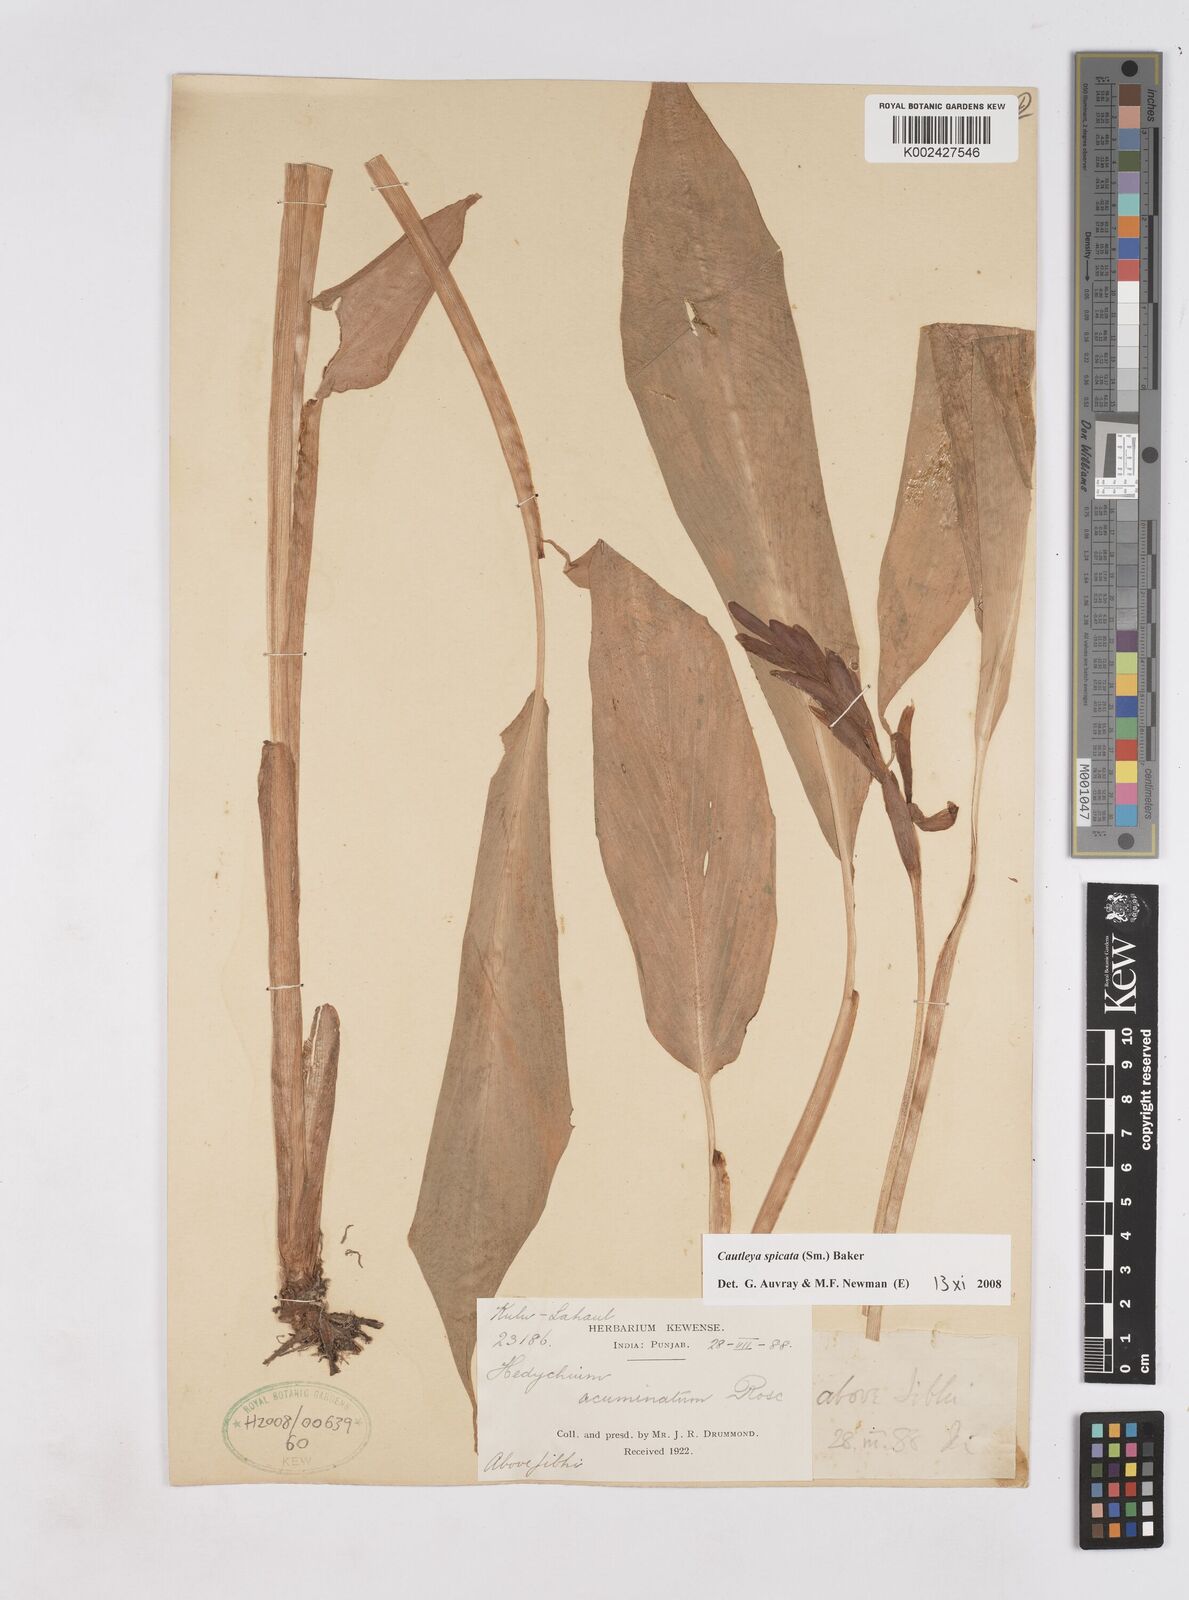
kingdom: Plantae
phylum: Tracheophyta
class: Liliopsida
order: Zingiberales
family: Zingiberaceae
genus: Cautleya
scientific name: Cautleya spicata
